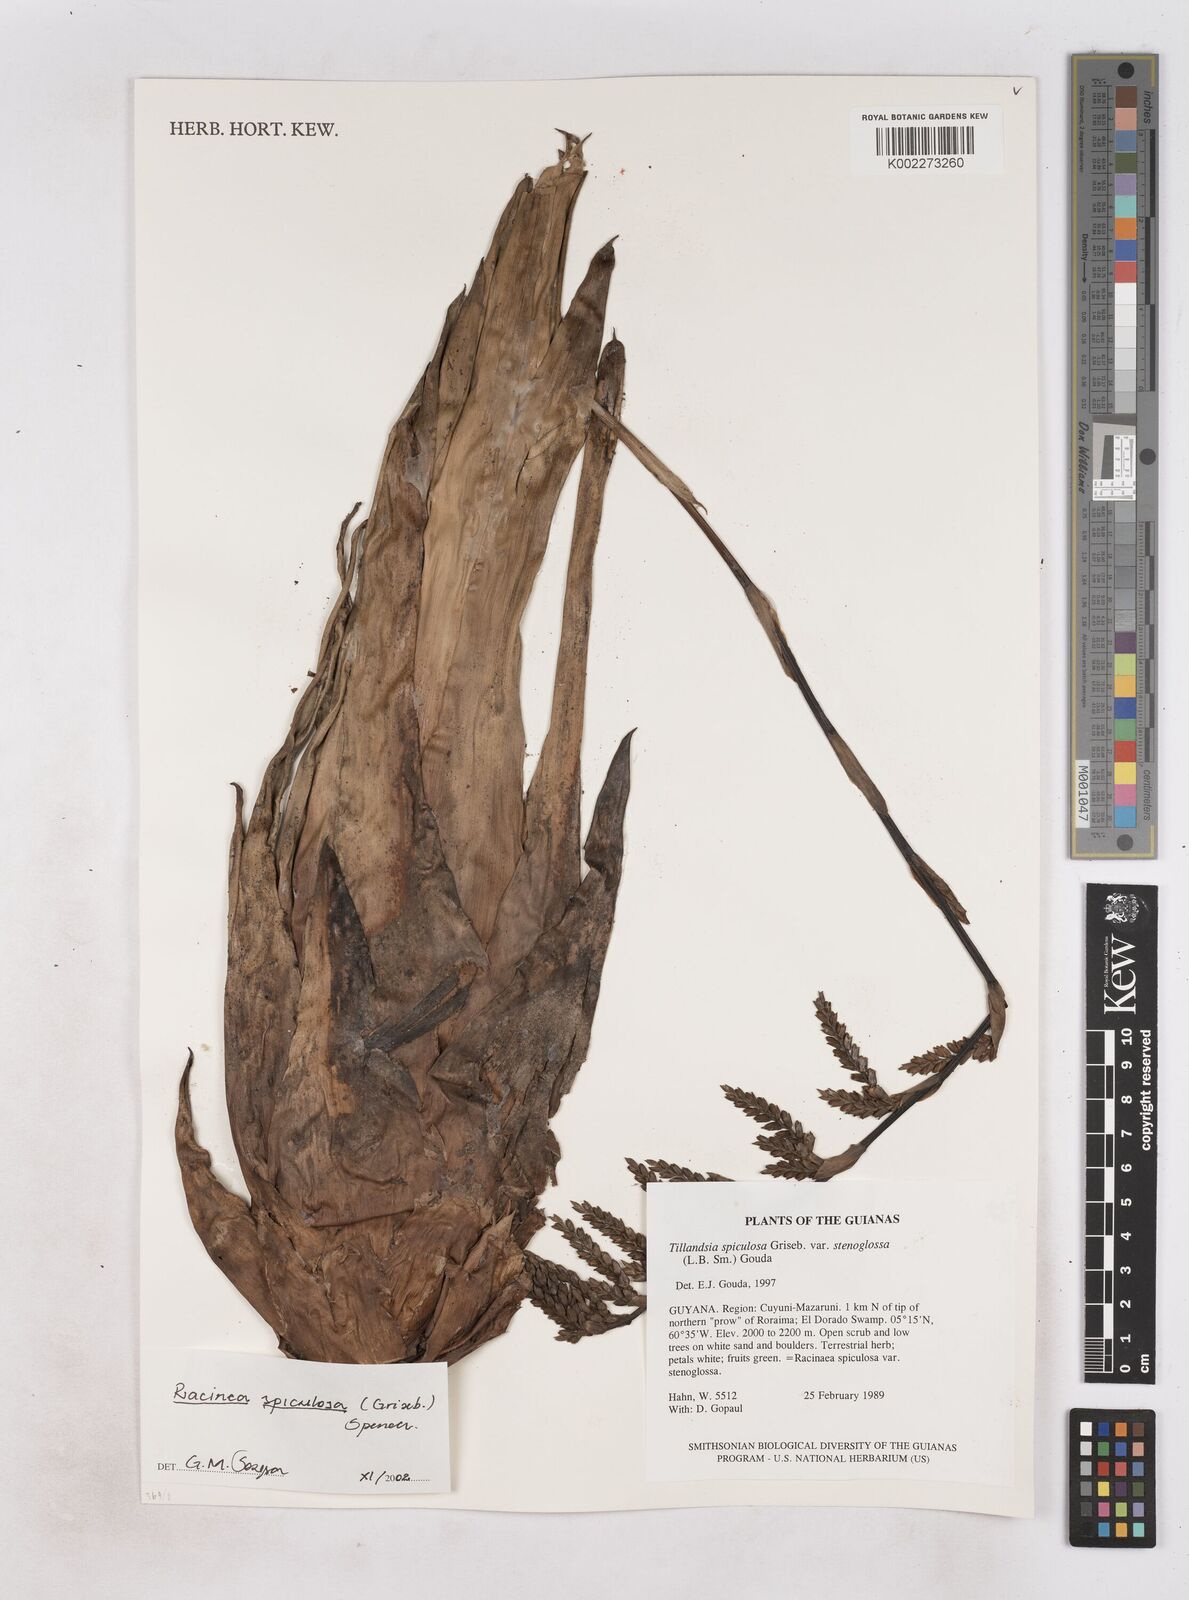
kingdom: Plantae
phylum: Tracheophyta
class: Liliopsida
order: Poales
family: Bromeliaceae
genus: Racinaea
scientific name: Racinaea spiculosa
